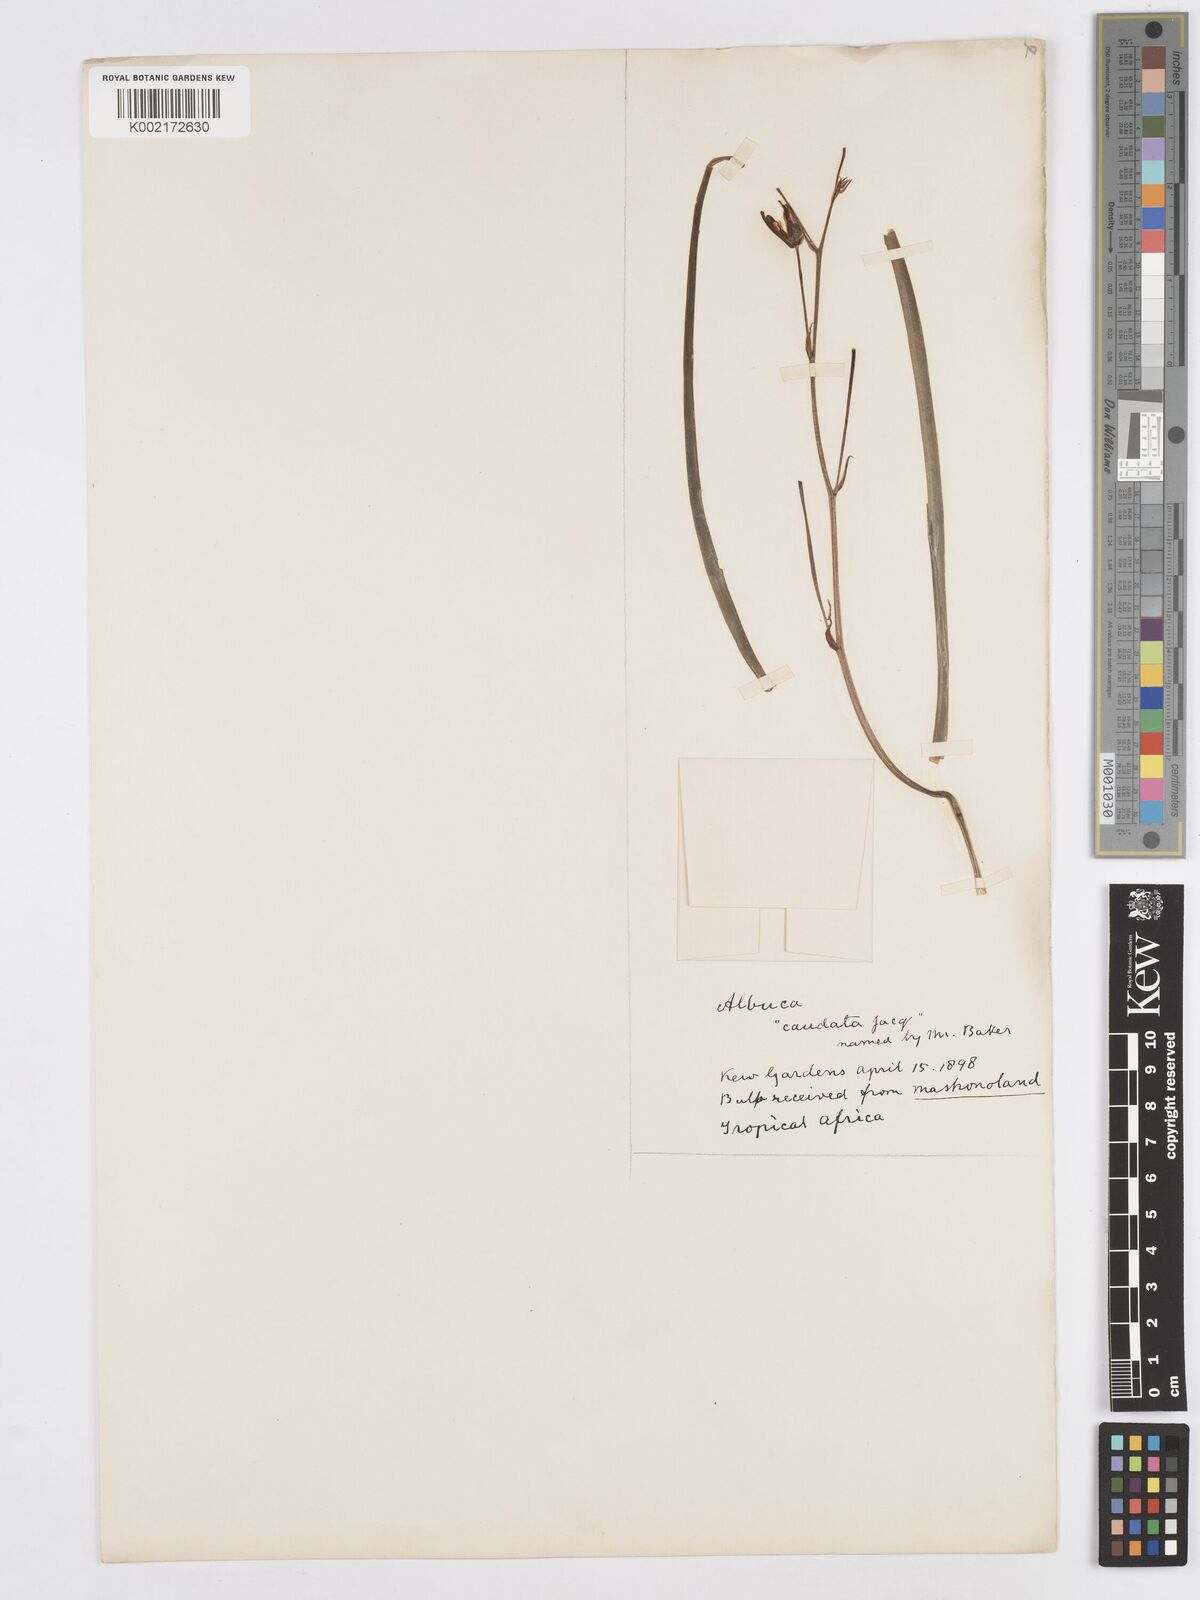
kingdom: Plantae
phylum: Tracheophyta
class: Liliopsida
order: Asparagales
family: Asparagaceae
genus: Albuca
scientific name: Albuca kirkii
